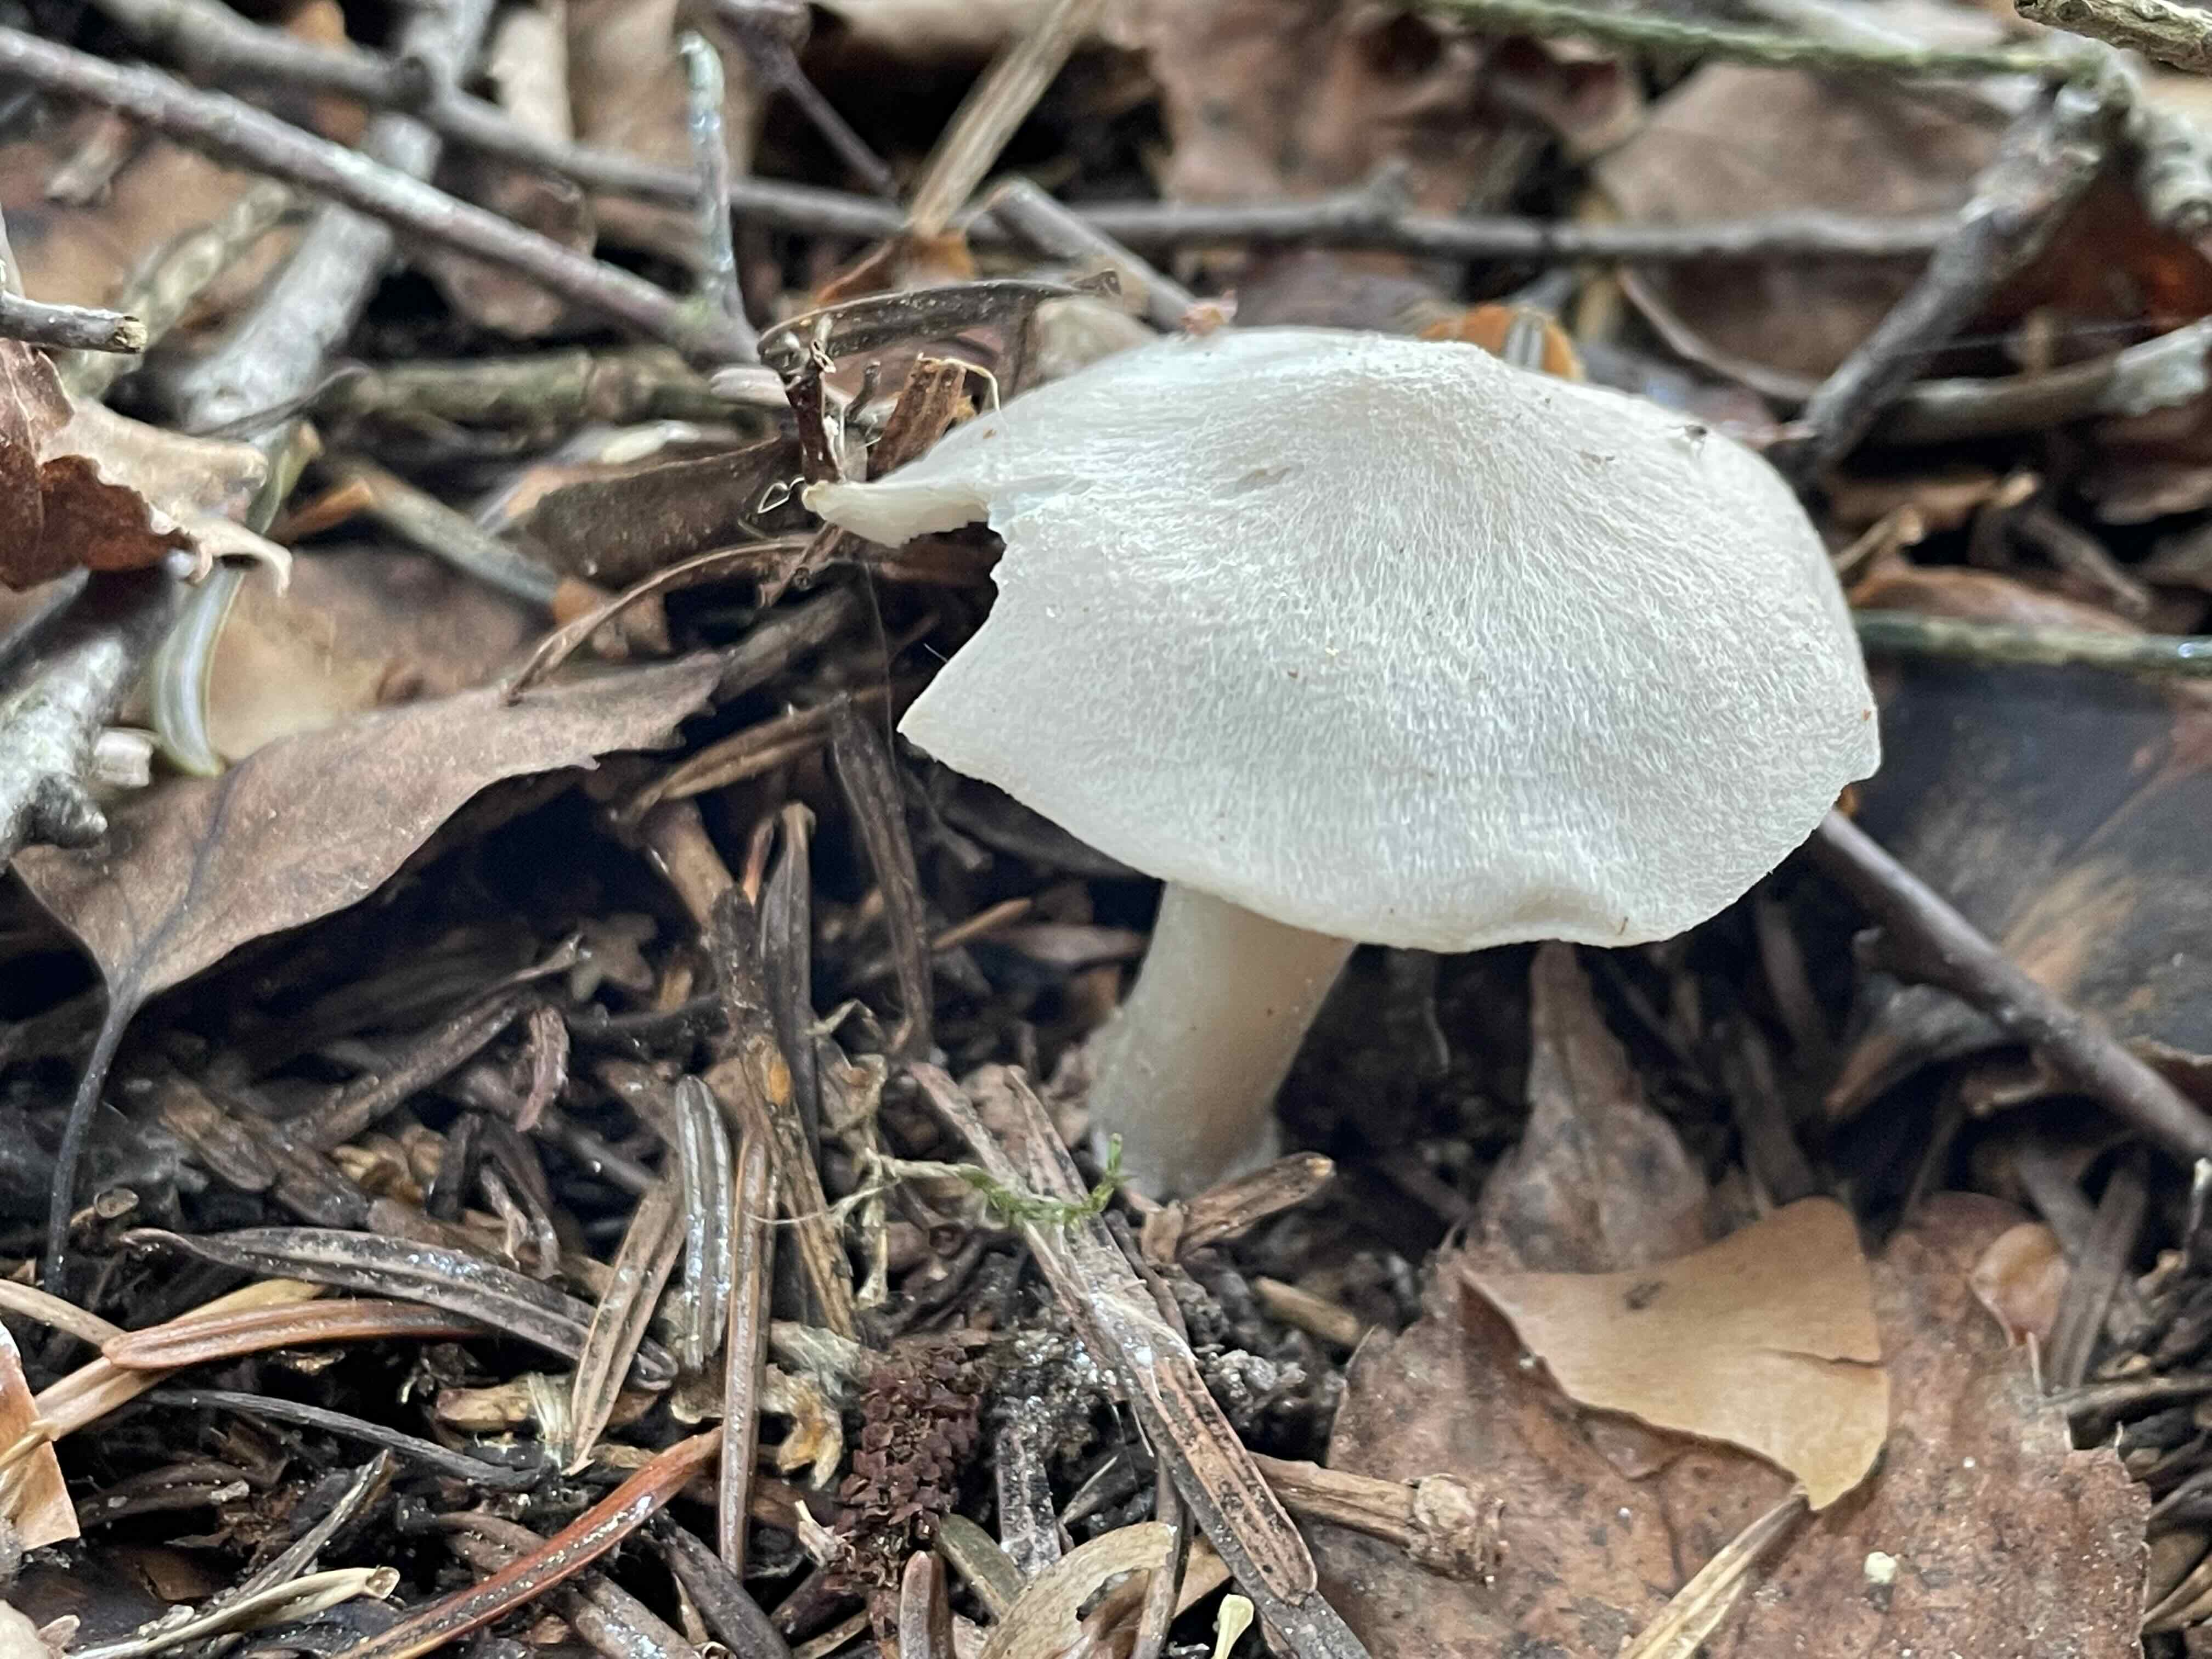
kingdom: Fungi
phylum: Basidiomycota
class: Agaricomycetes
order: Agaricales
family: Tricholomataceae
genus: Tricholoma
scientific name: Tricholoma argyraceum
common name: spids ridderhat
